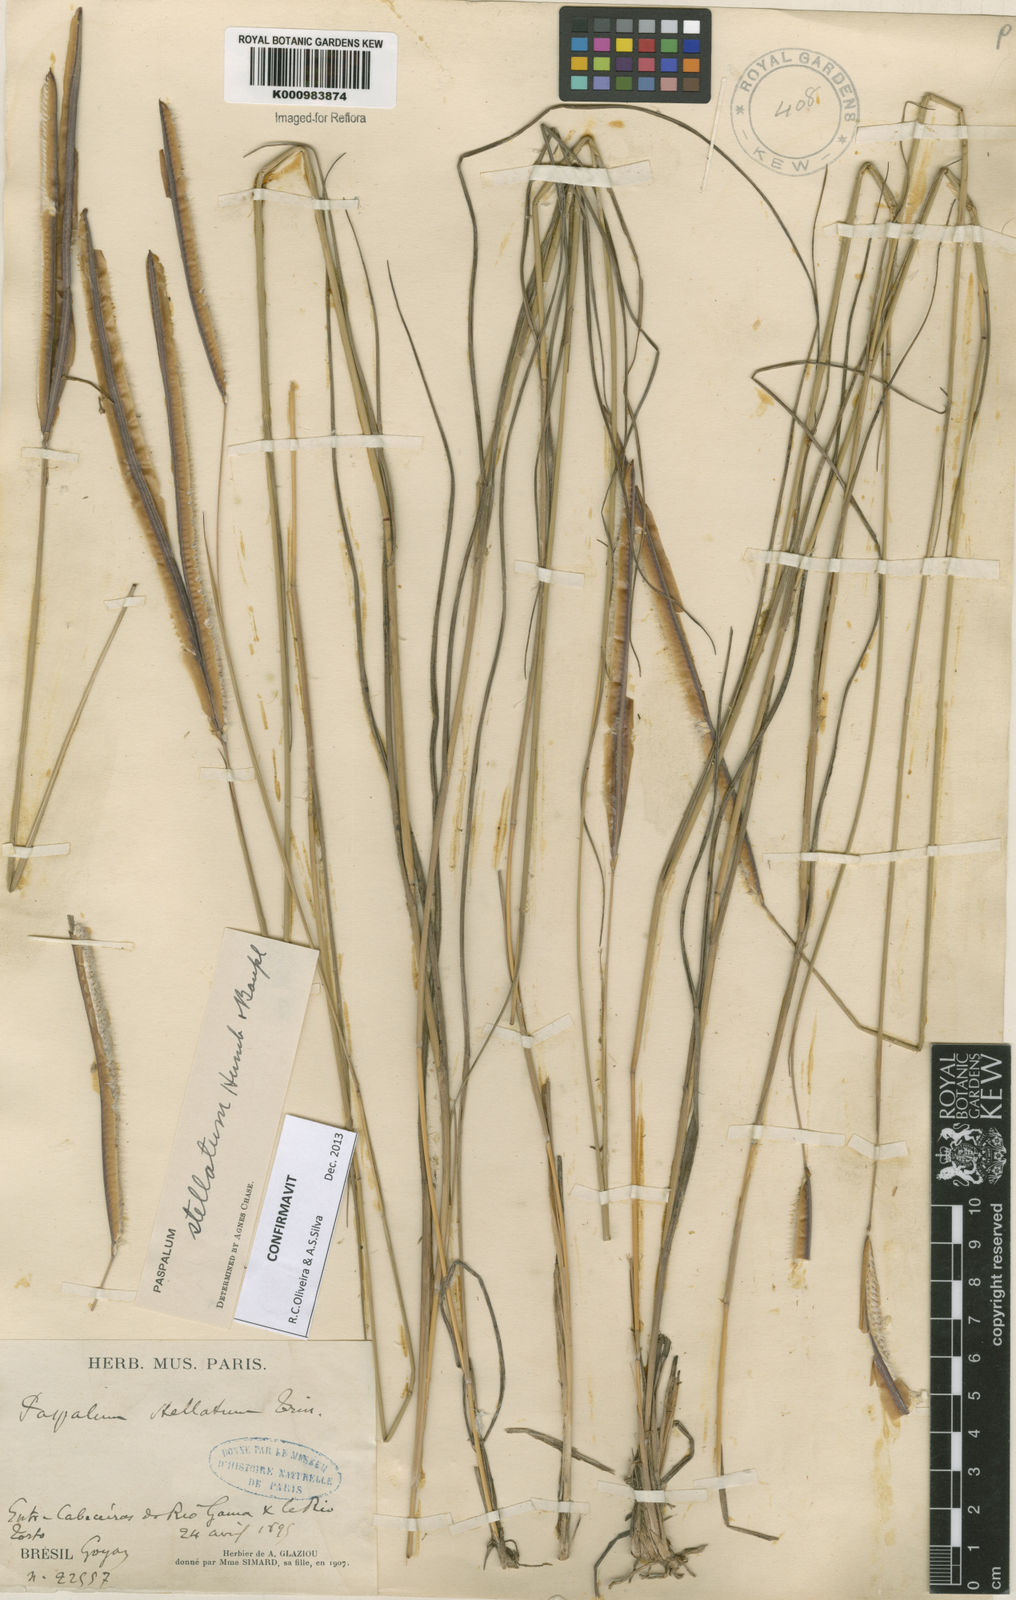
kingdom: Plantae
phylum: Tracheophyta
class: Liliopsida
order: Poales
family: Poaceae
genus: Paspalum
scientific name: Paspalum
